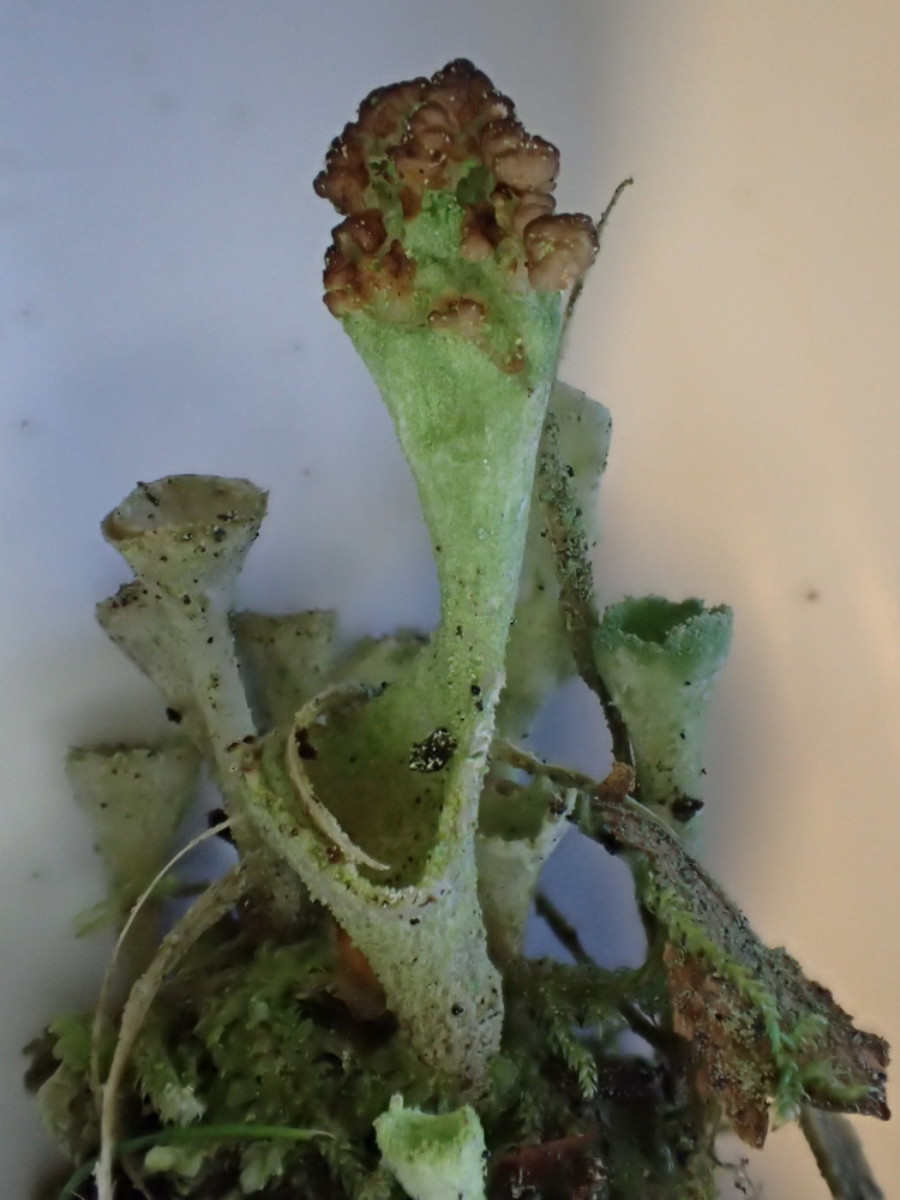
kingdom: Fungi
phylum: Ascomycota
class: Lecanoromycetes
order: Lecanorales
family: Cladoniaceae
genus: Cladonia
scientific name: Cladonia fimbriata
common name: bleggrøn bægerlav
